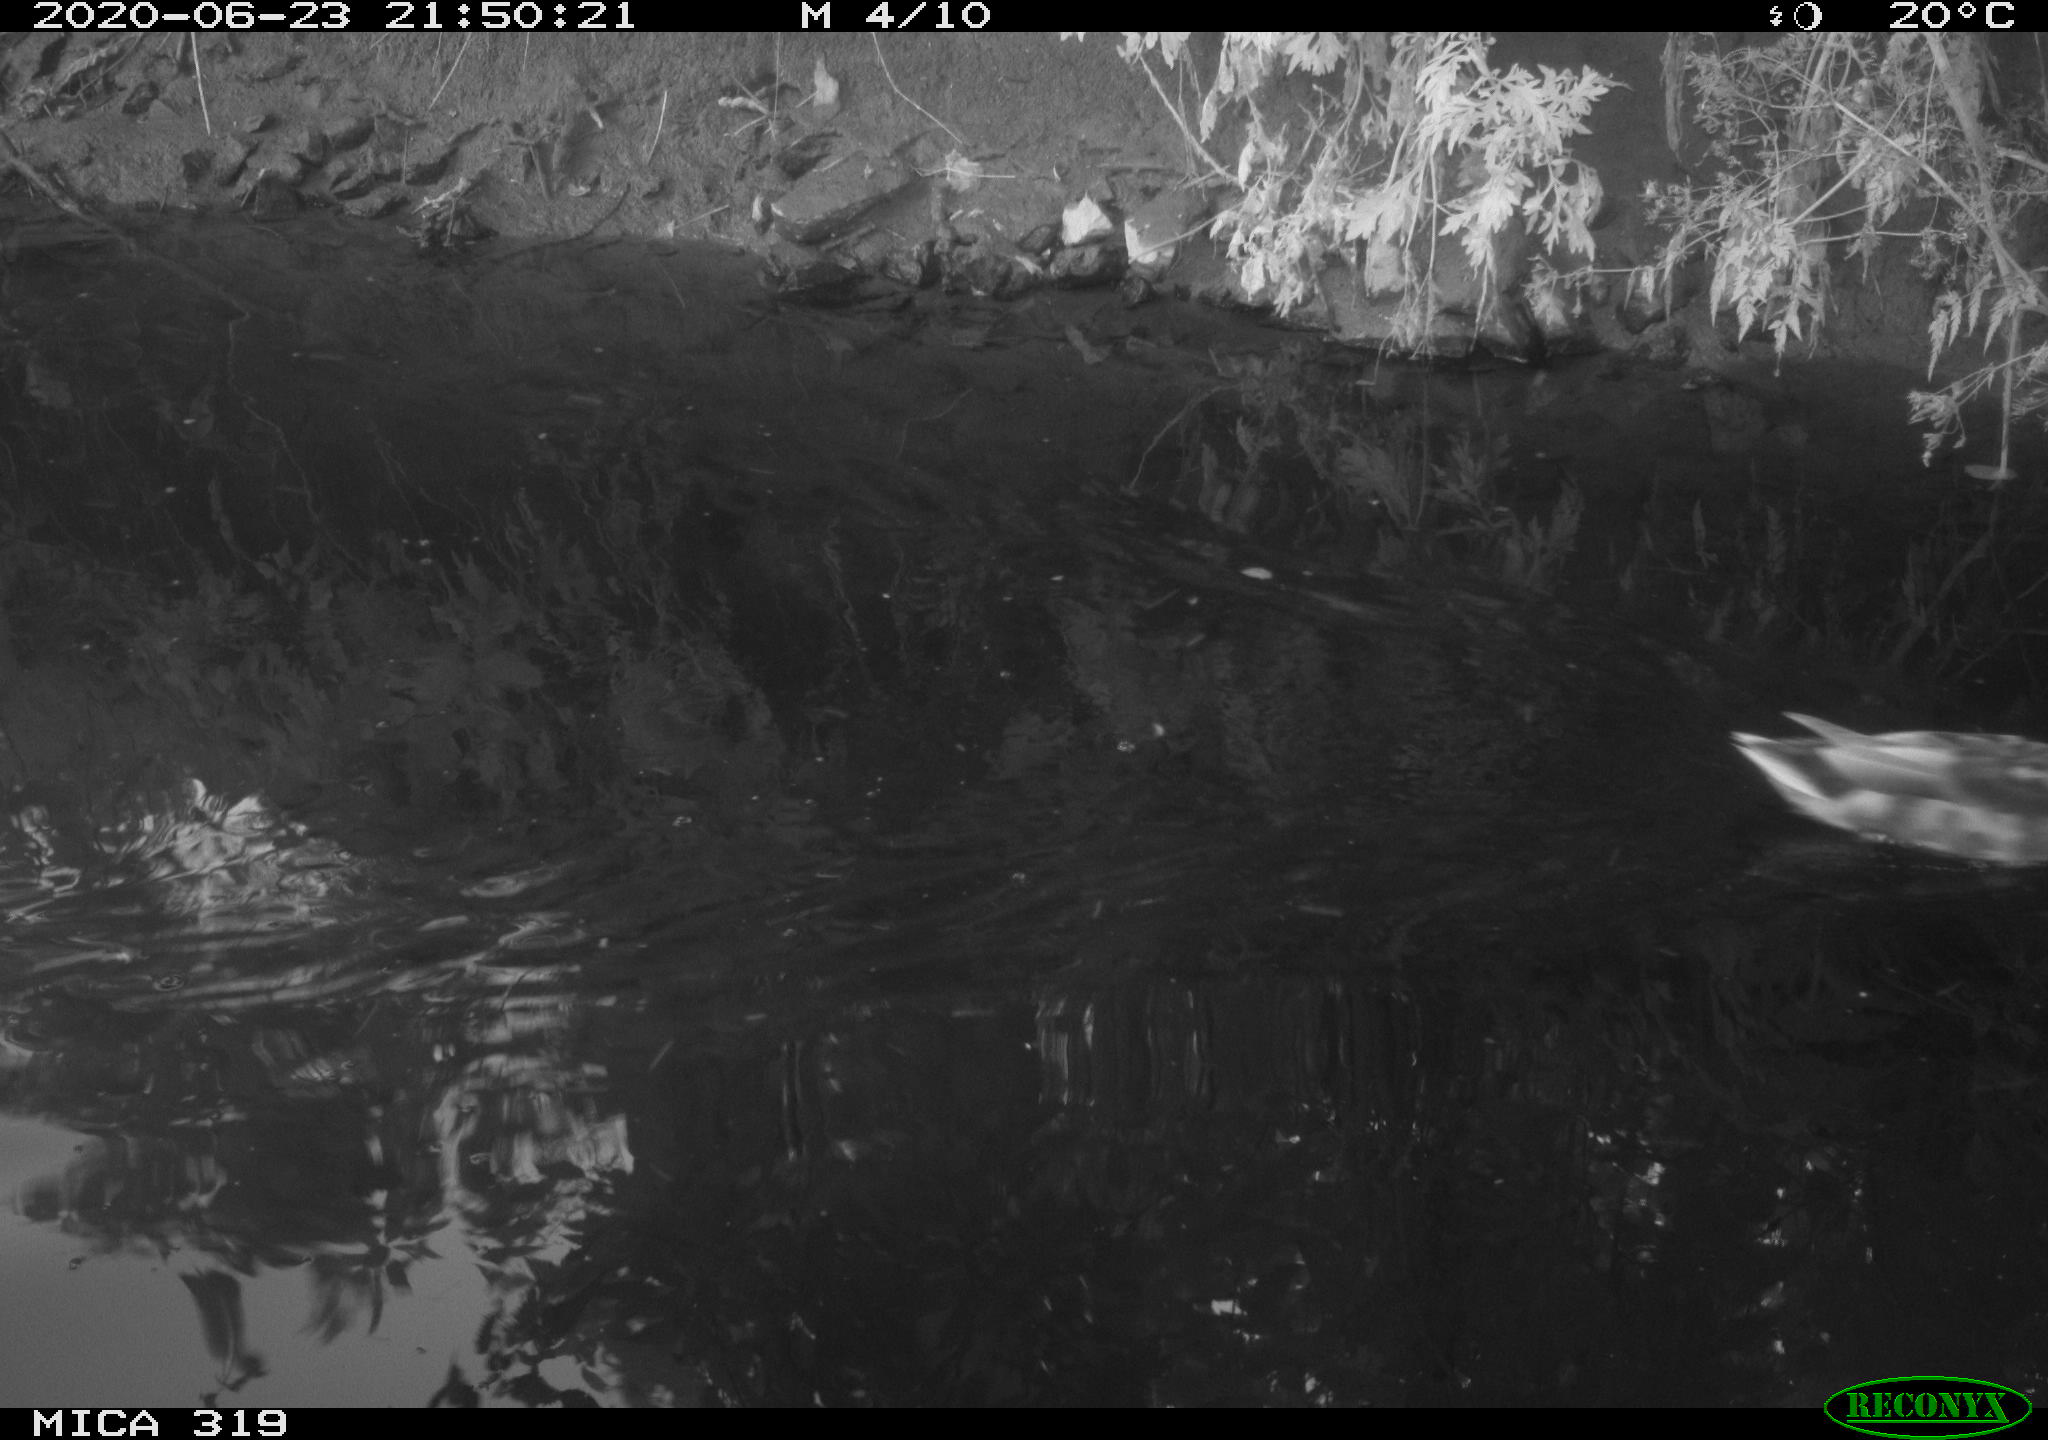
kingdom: Animalia
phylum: Chordata
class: Aves
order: Anseriformes
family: Anatidae
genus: Anas
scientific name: Anas platyrhynchos
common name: Mallard
